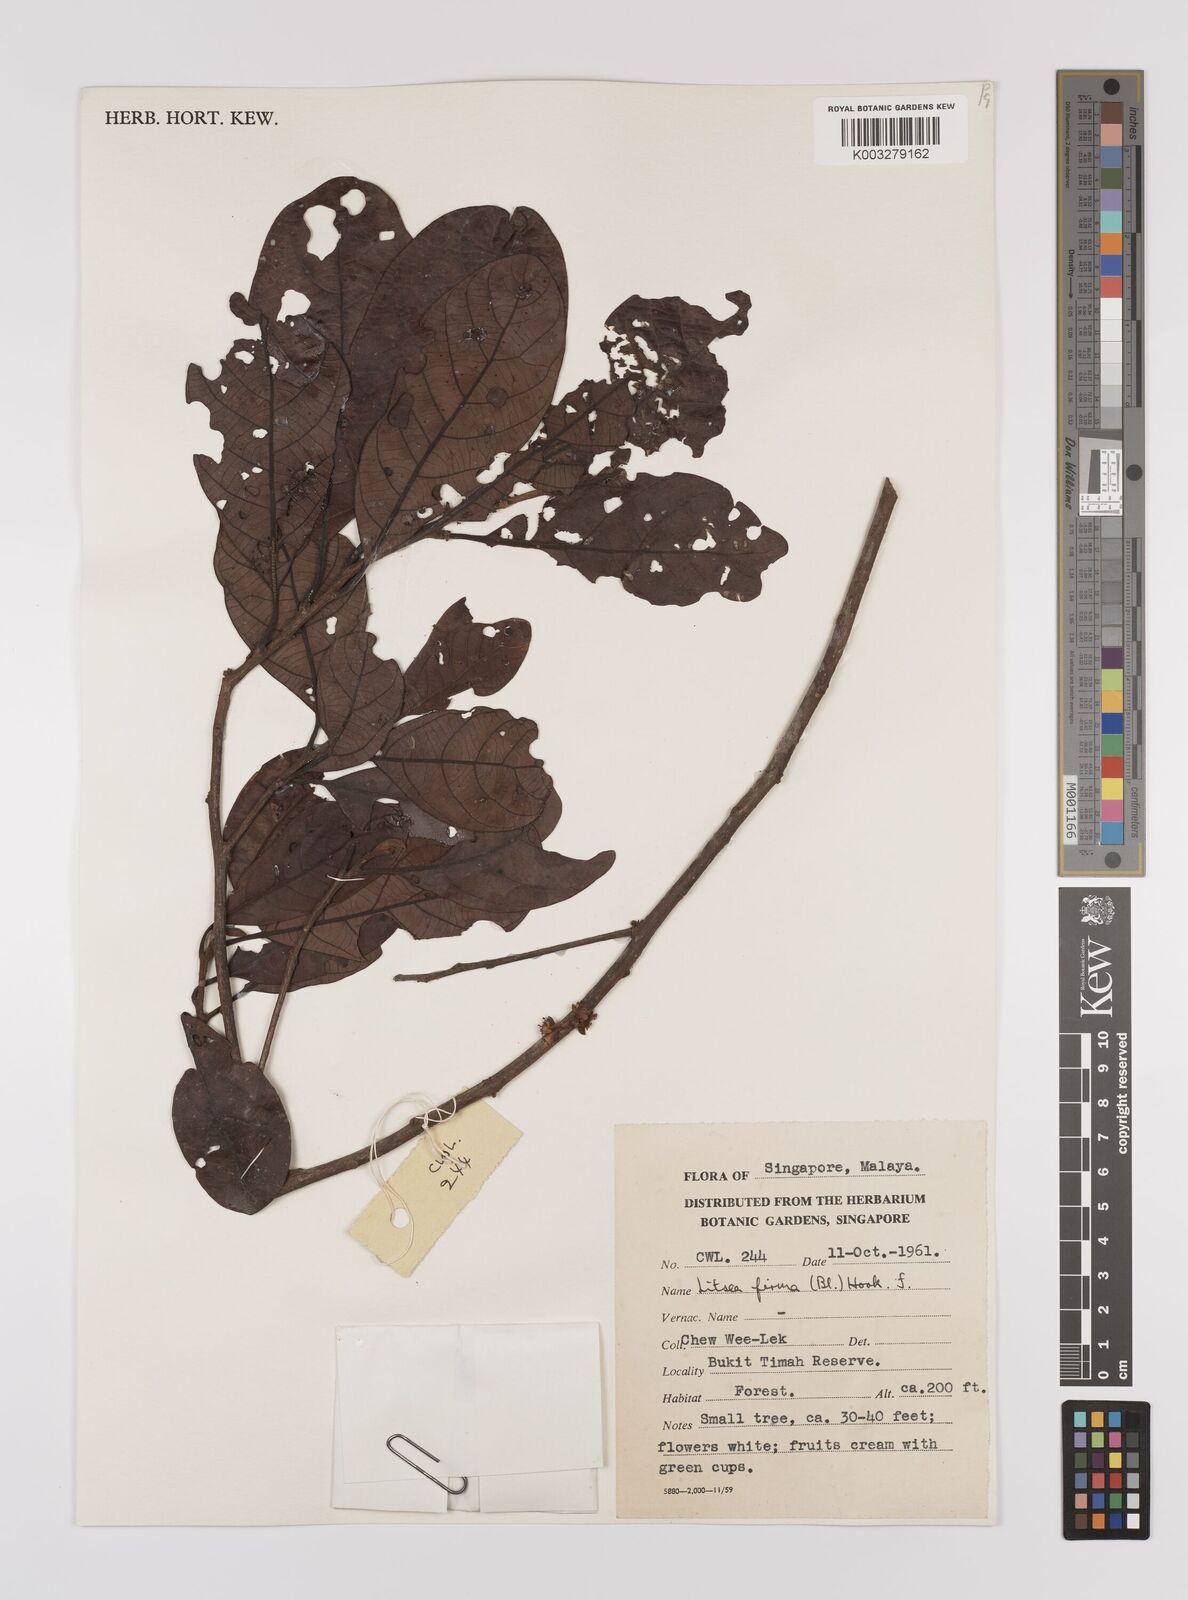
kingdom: Plantae
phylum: Tracheophyta
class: Magnoliopsida
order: Laurales
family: Lauraceae
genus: Litsea
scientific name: Litsea firma
